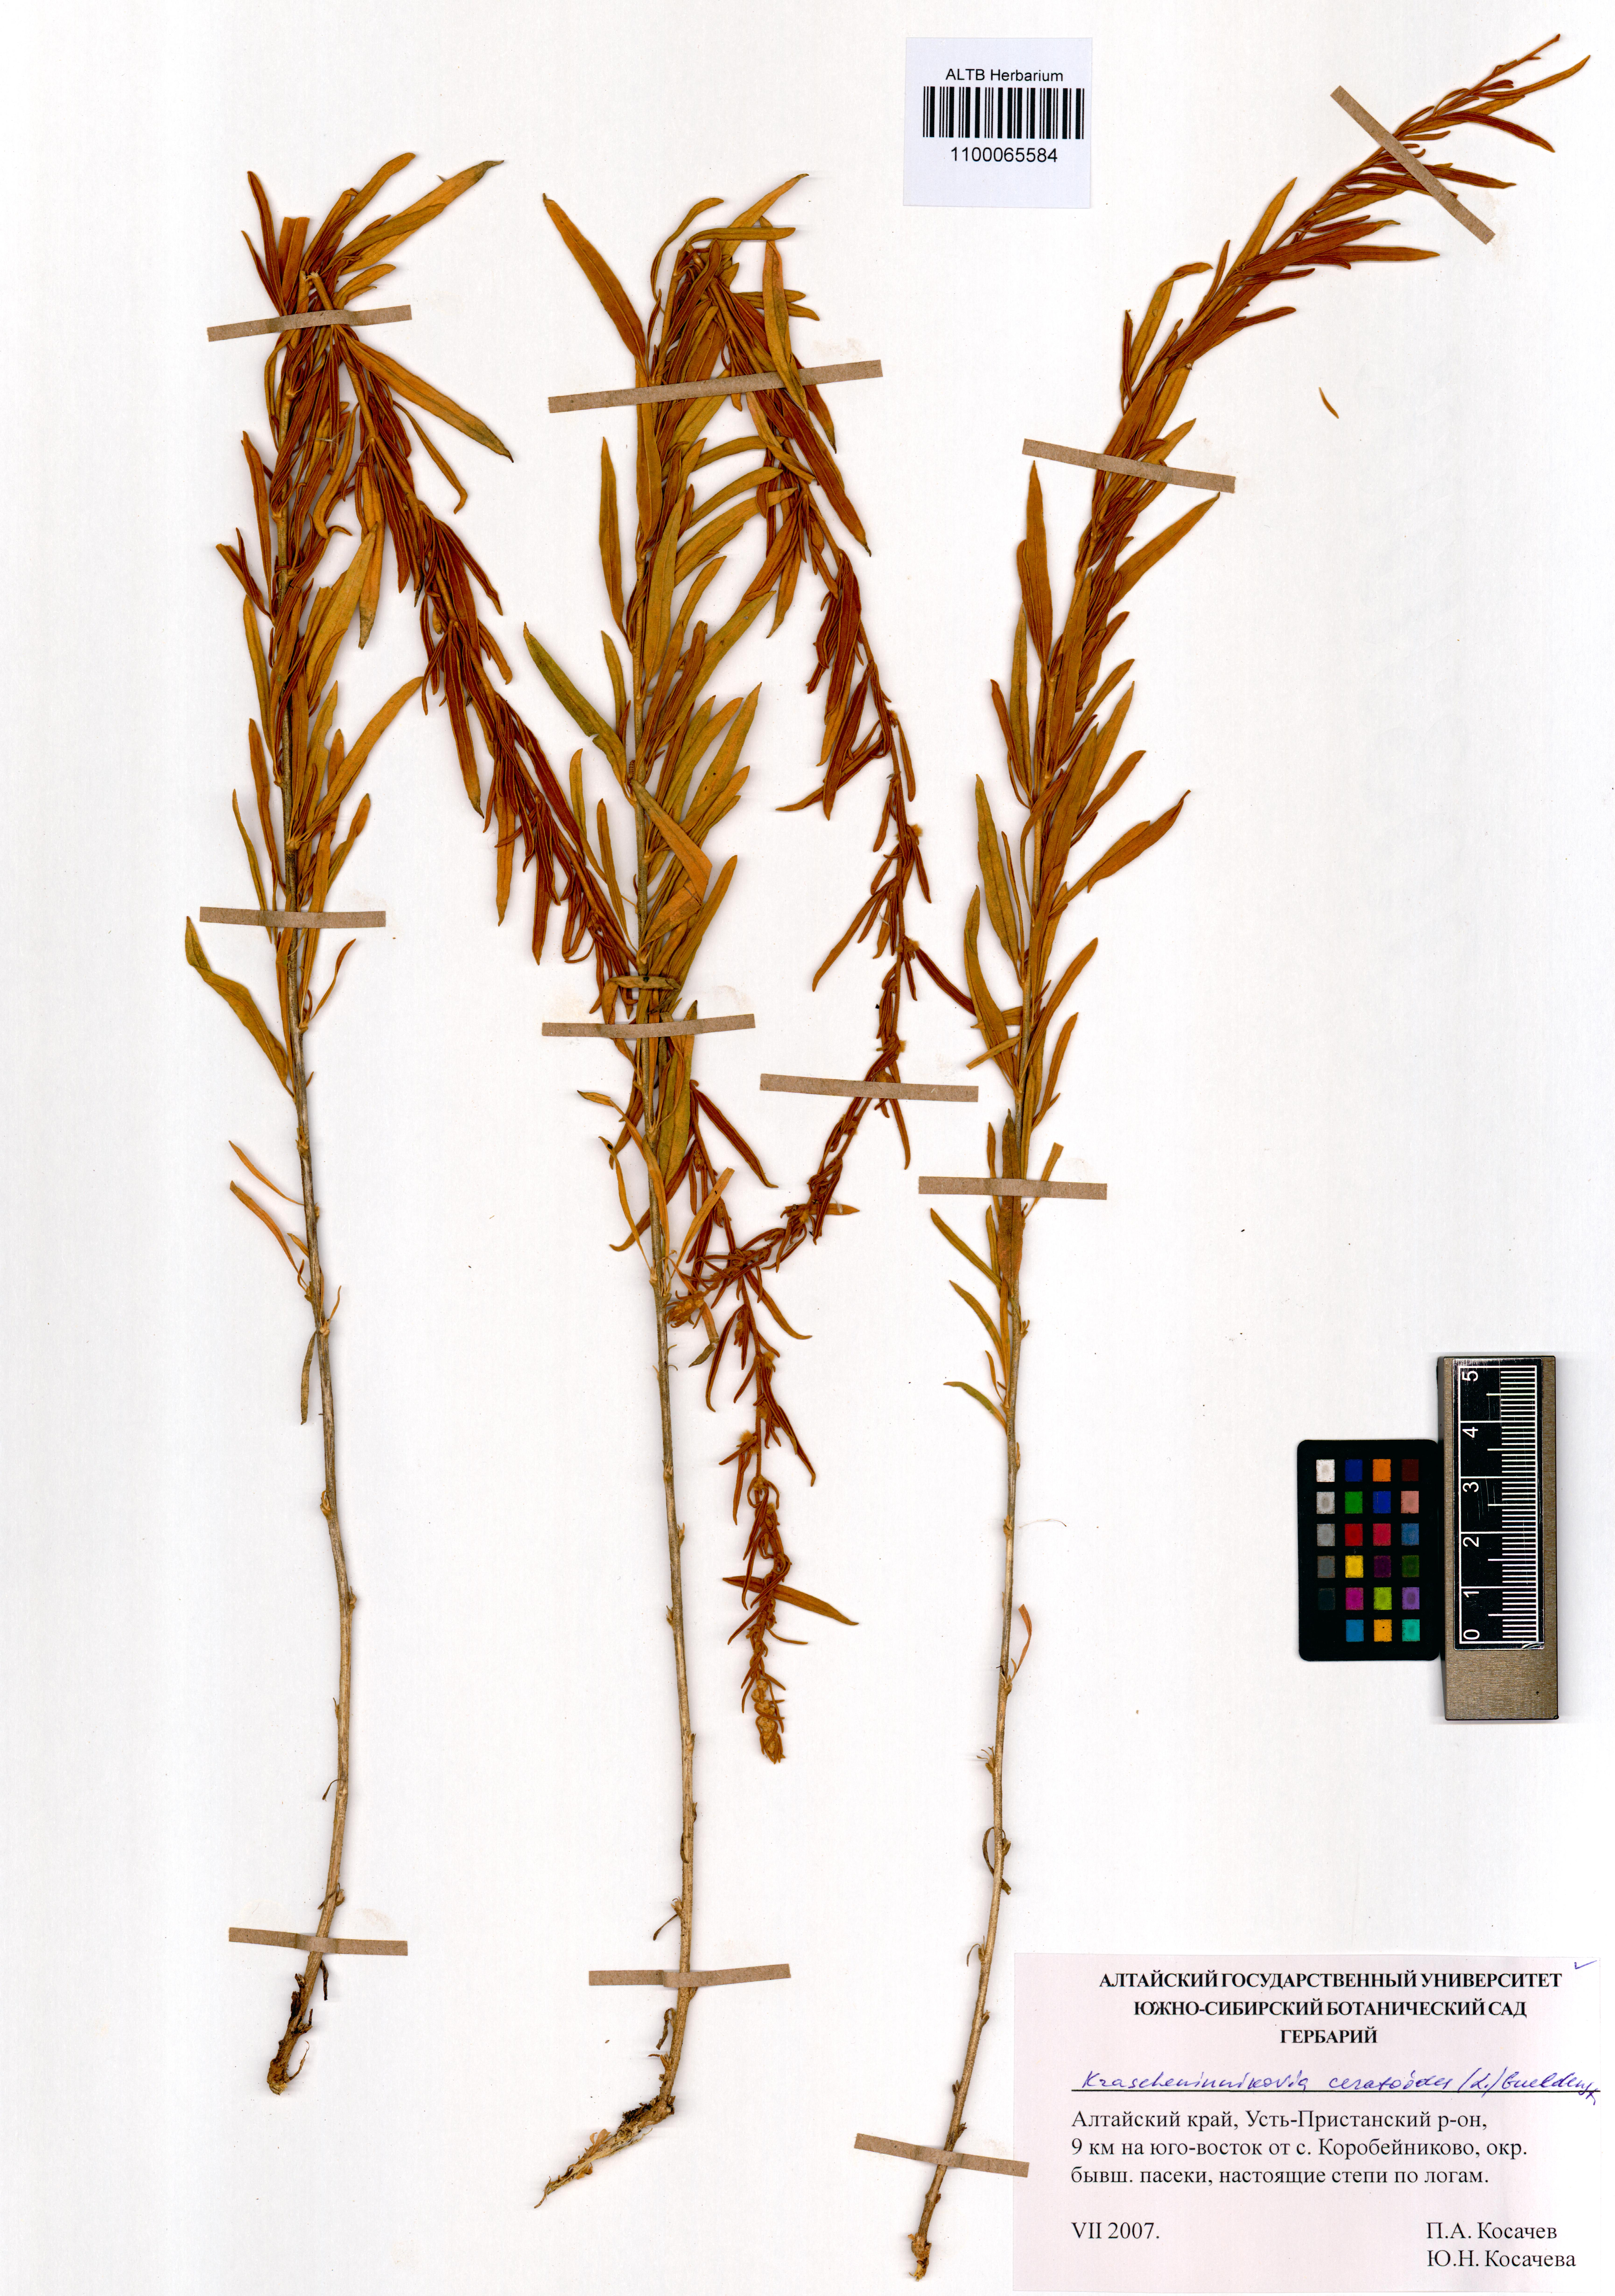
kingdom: Plantae
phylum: Tracheophyta
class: Magnoliopsida
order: Caryophyllales
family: Amaranthaceae
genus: Krascheninnikovia
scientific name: Krascheninnikovia ceratoides
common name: Pamirian winterfat
